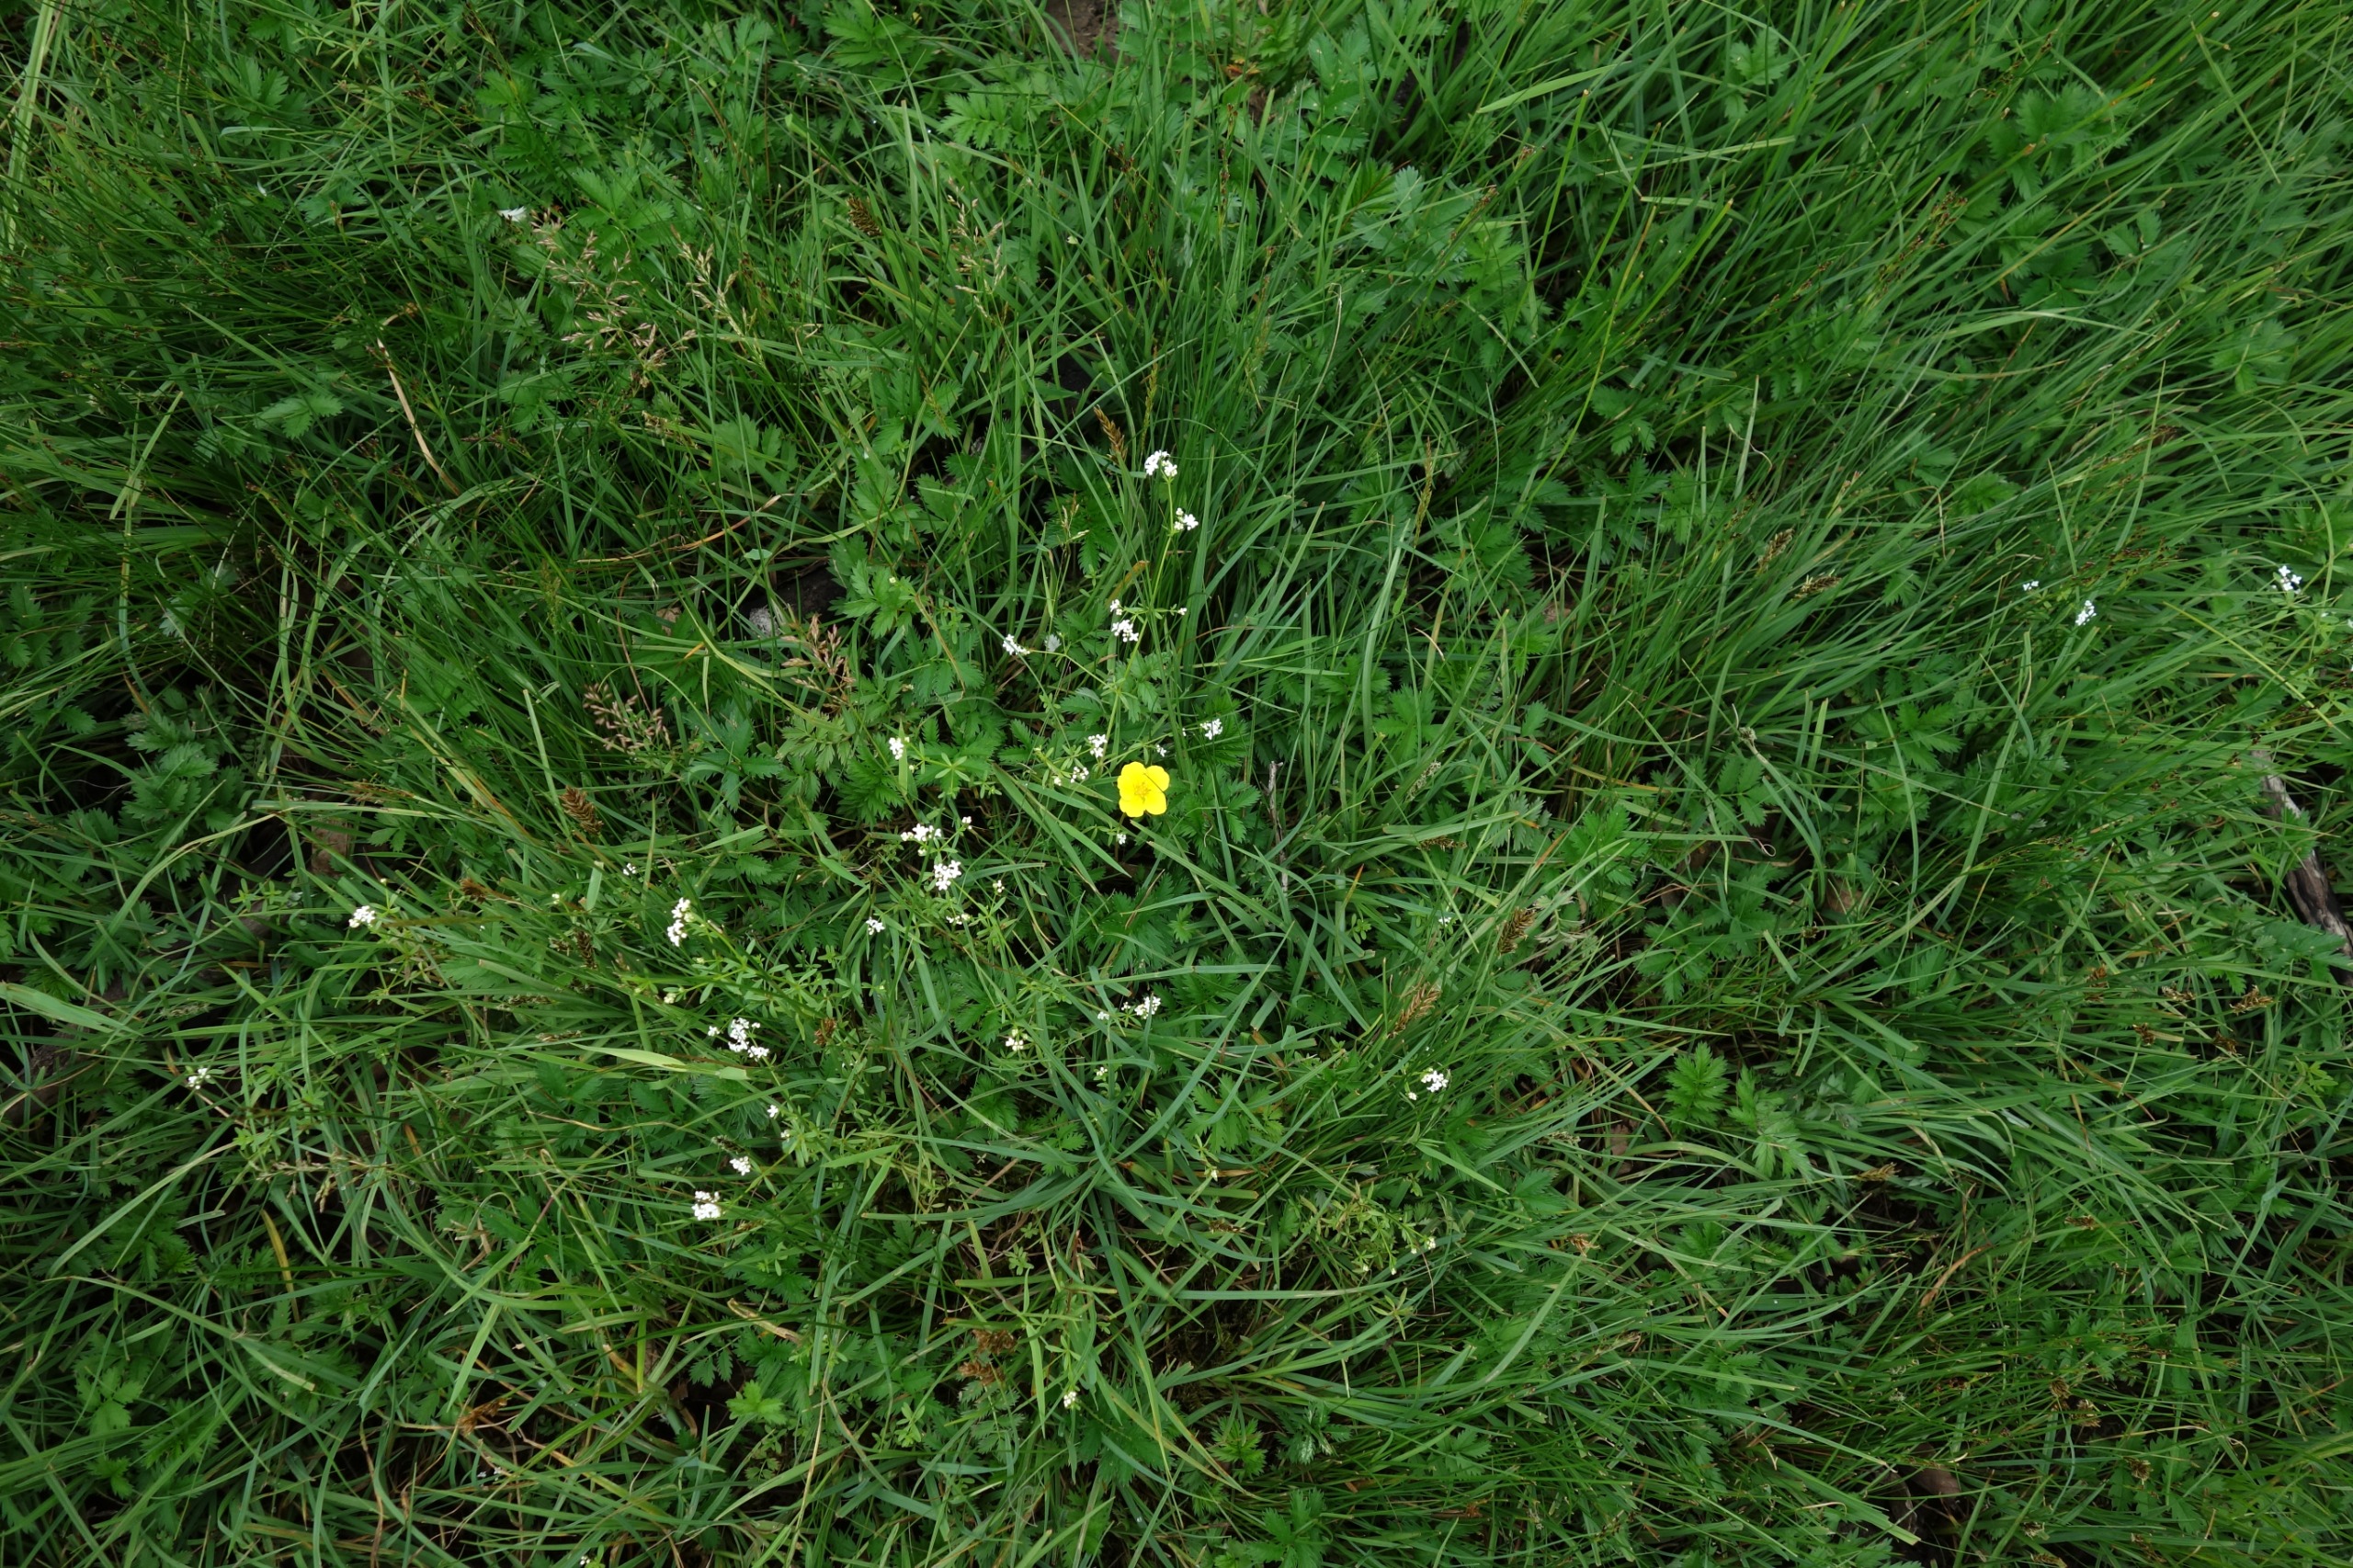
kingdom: Plantae
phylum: Tracheophyta
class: Magnoliopsida
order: Rosales
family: Rosaceae
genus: Argentina
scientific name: Argentina anserina
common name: Gåsepotentil
